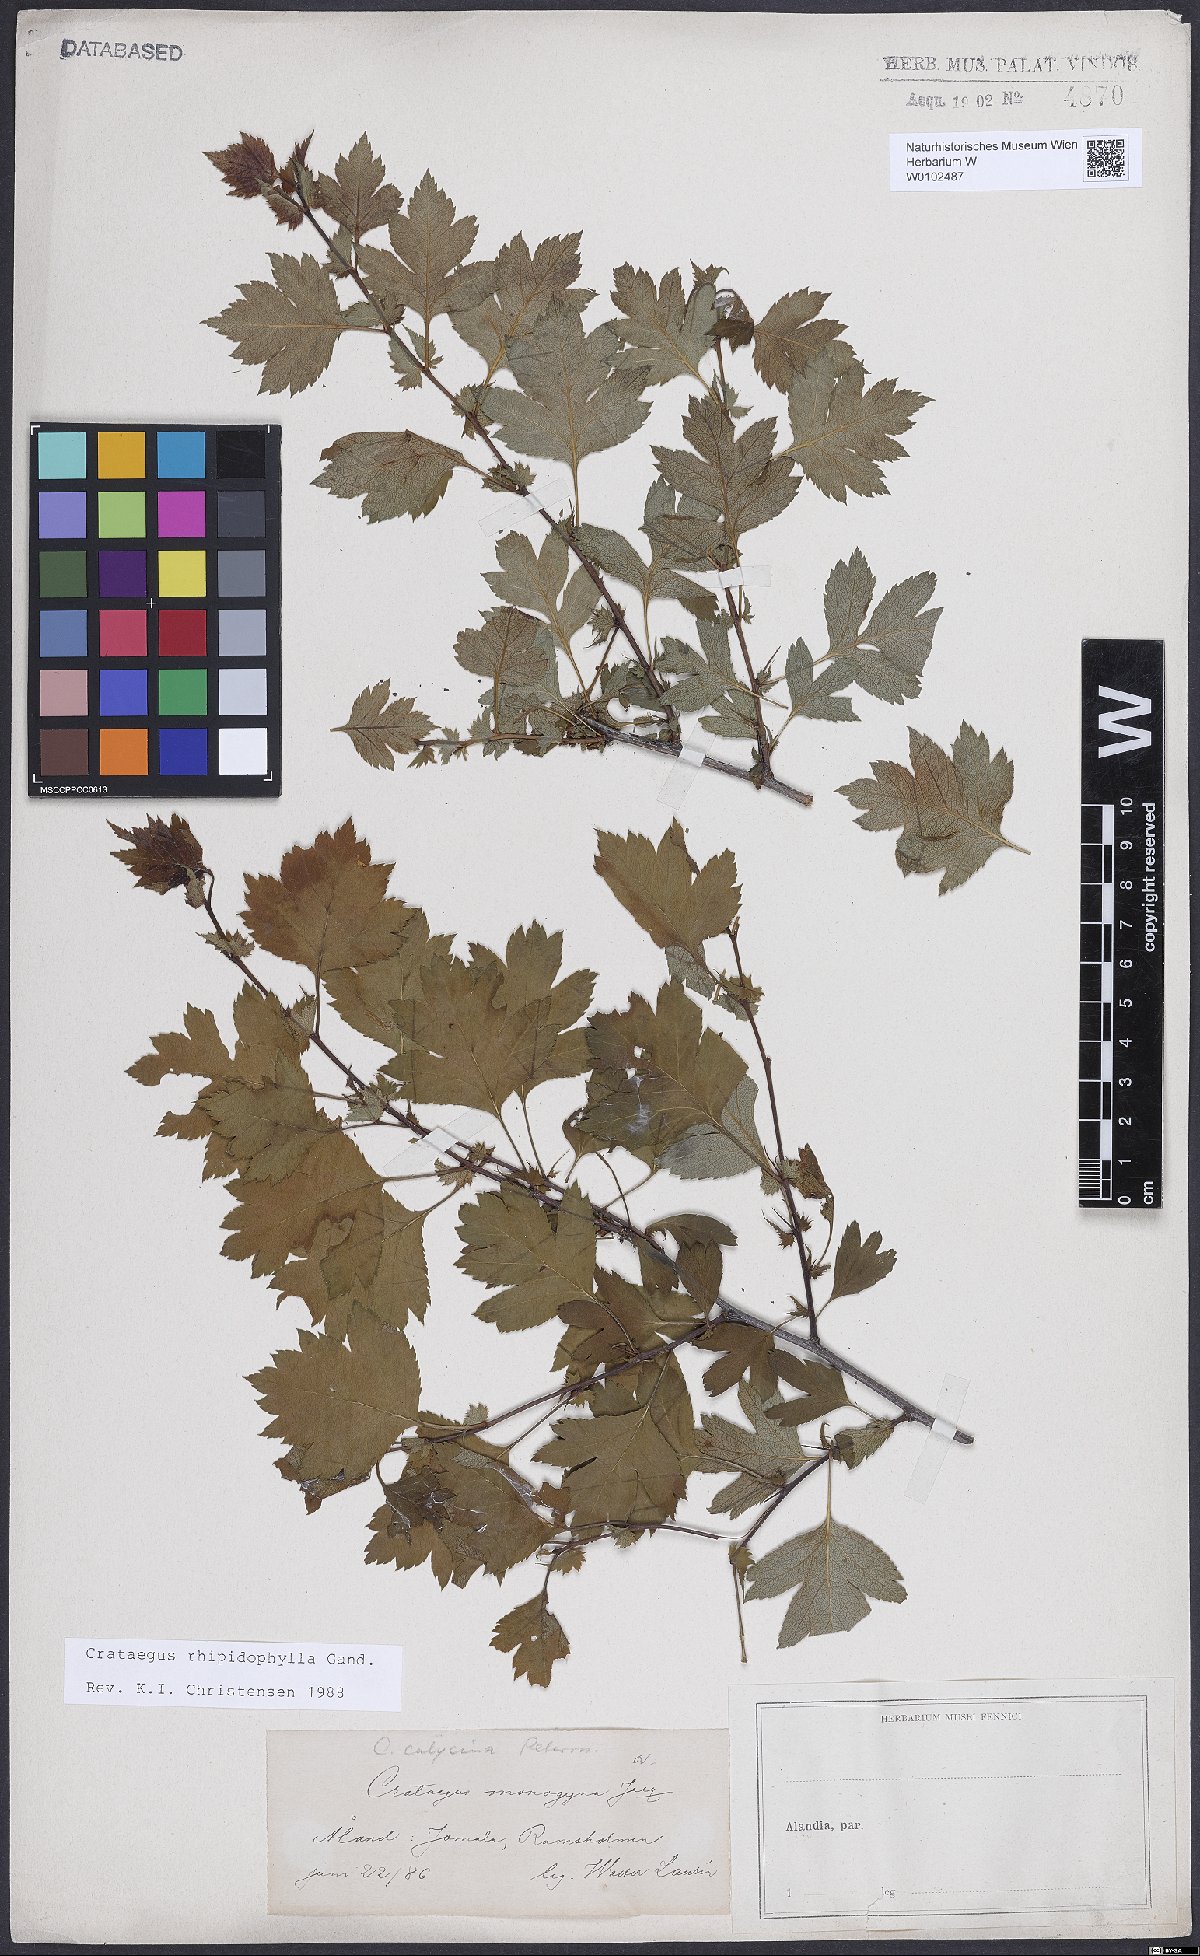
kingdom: Plantae
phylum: Tracheophyta
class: Magnoliopsida
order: Rosales
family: Rosaceae
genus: Crataegus
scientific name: Crataegus rhipidophylla
